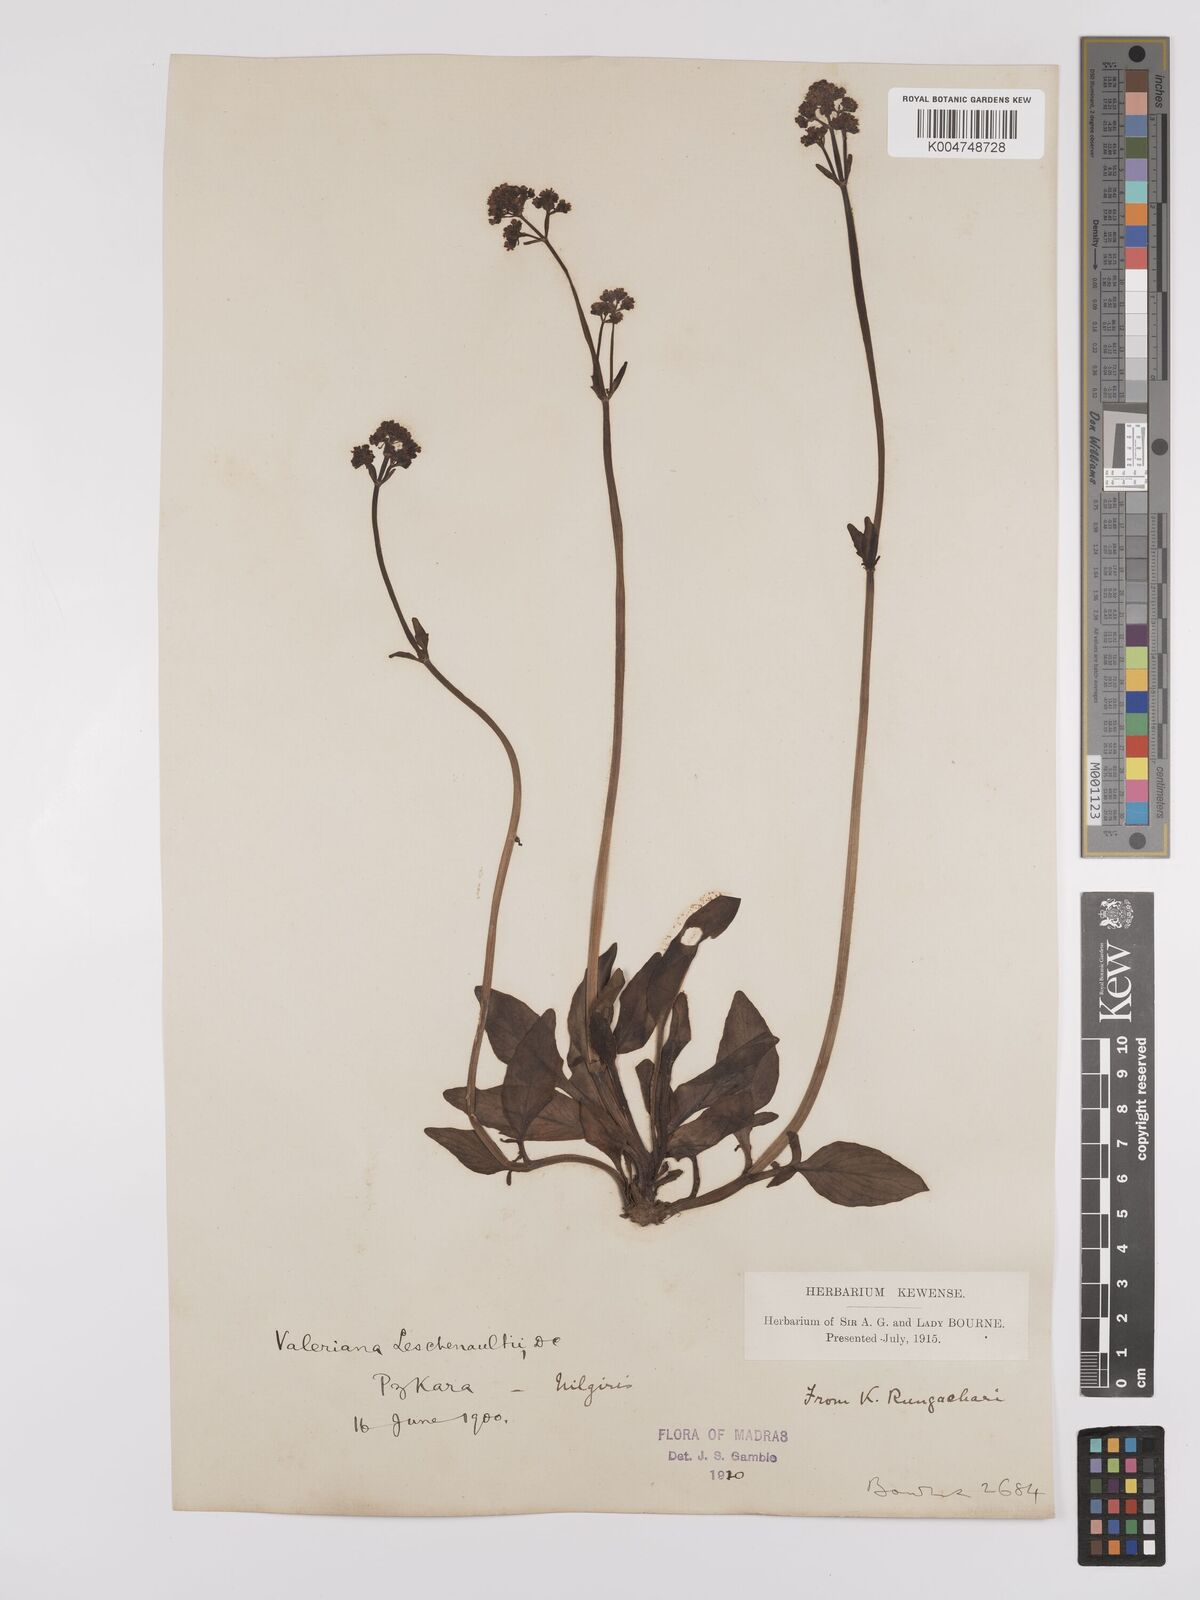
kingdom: Plantae
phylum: Tracheophyta
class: Magnoliopsida
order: Dipsacales
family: Caprifoliaceae
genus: Valeriana
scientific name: Valeriana leschenaultii
